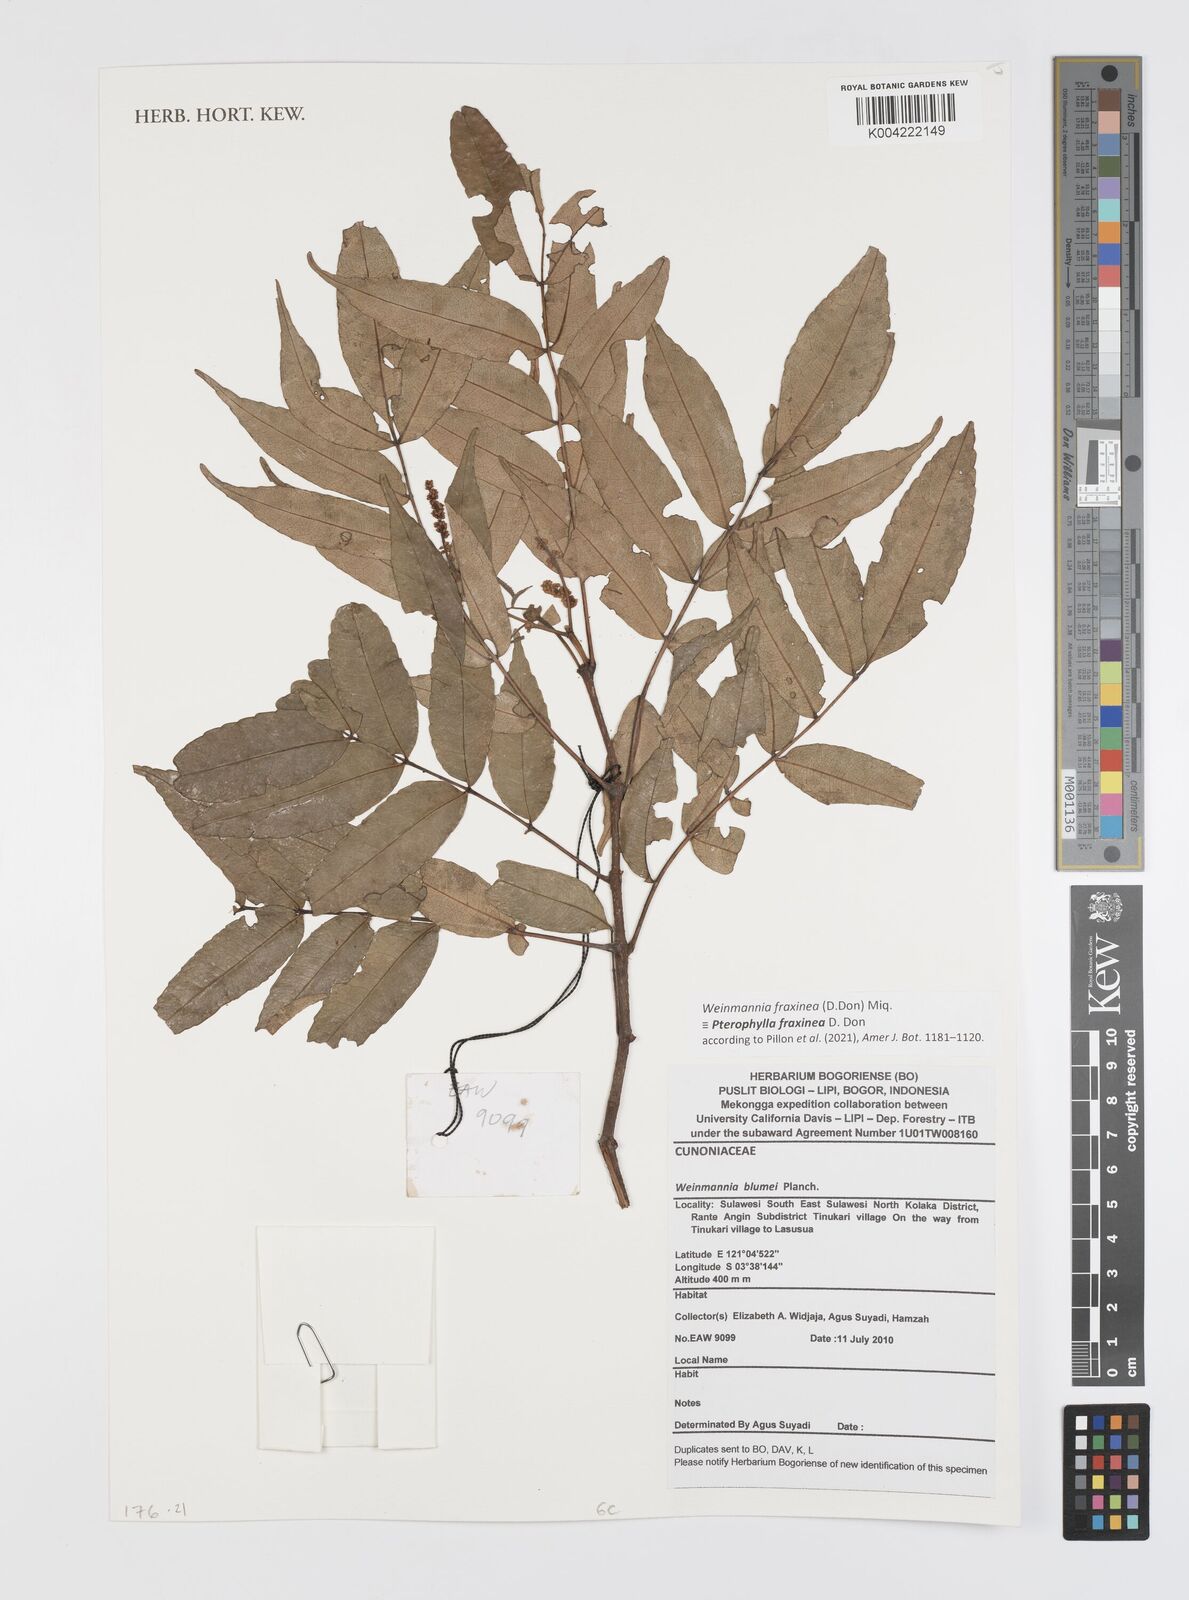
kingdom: Plantae
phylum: Tracheophyta
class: Magnoliopsida
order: Oxalidales
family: Cunoniaceae
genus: Pterophylla
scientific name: Pterophylla fraxinea
